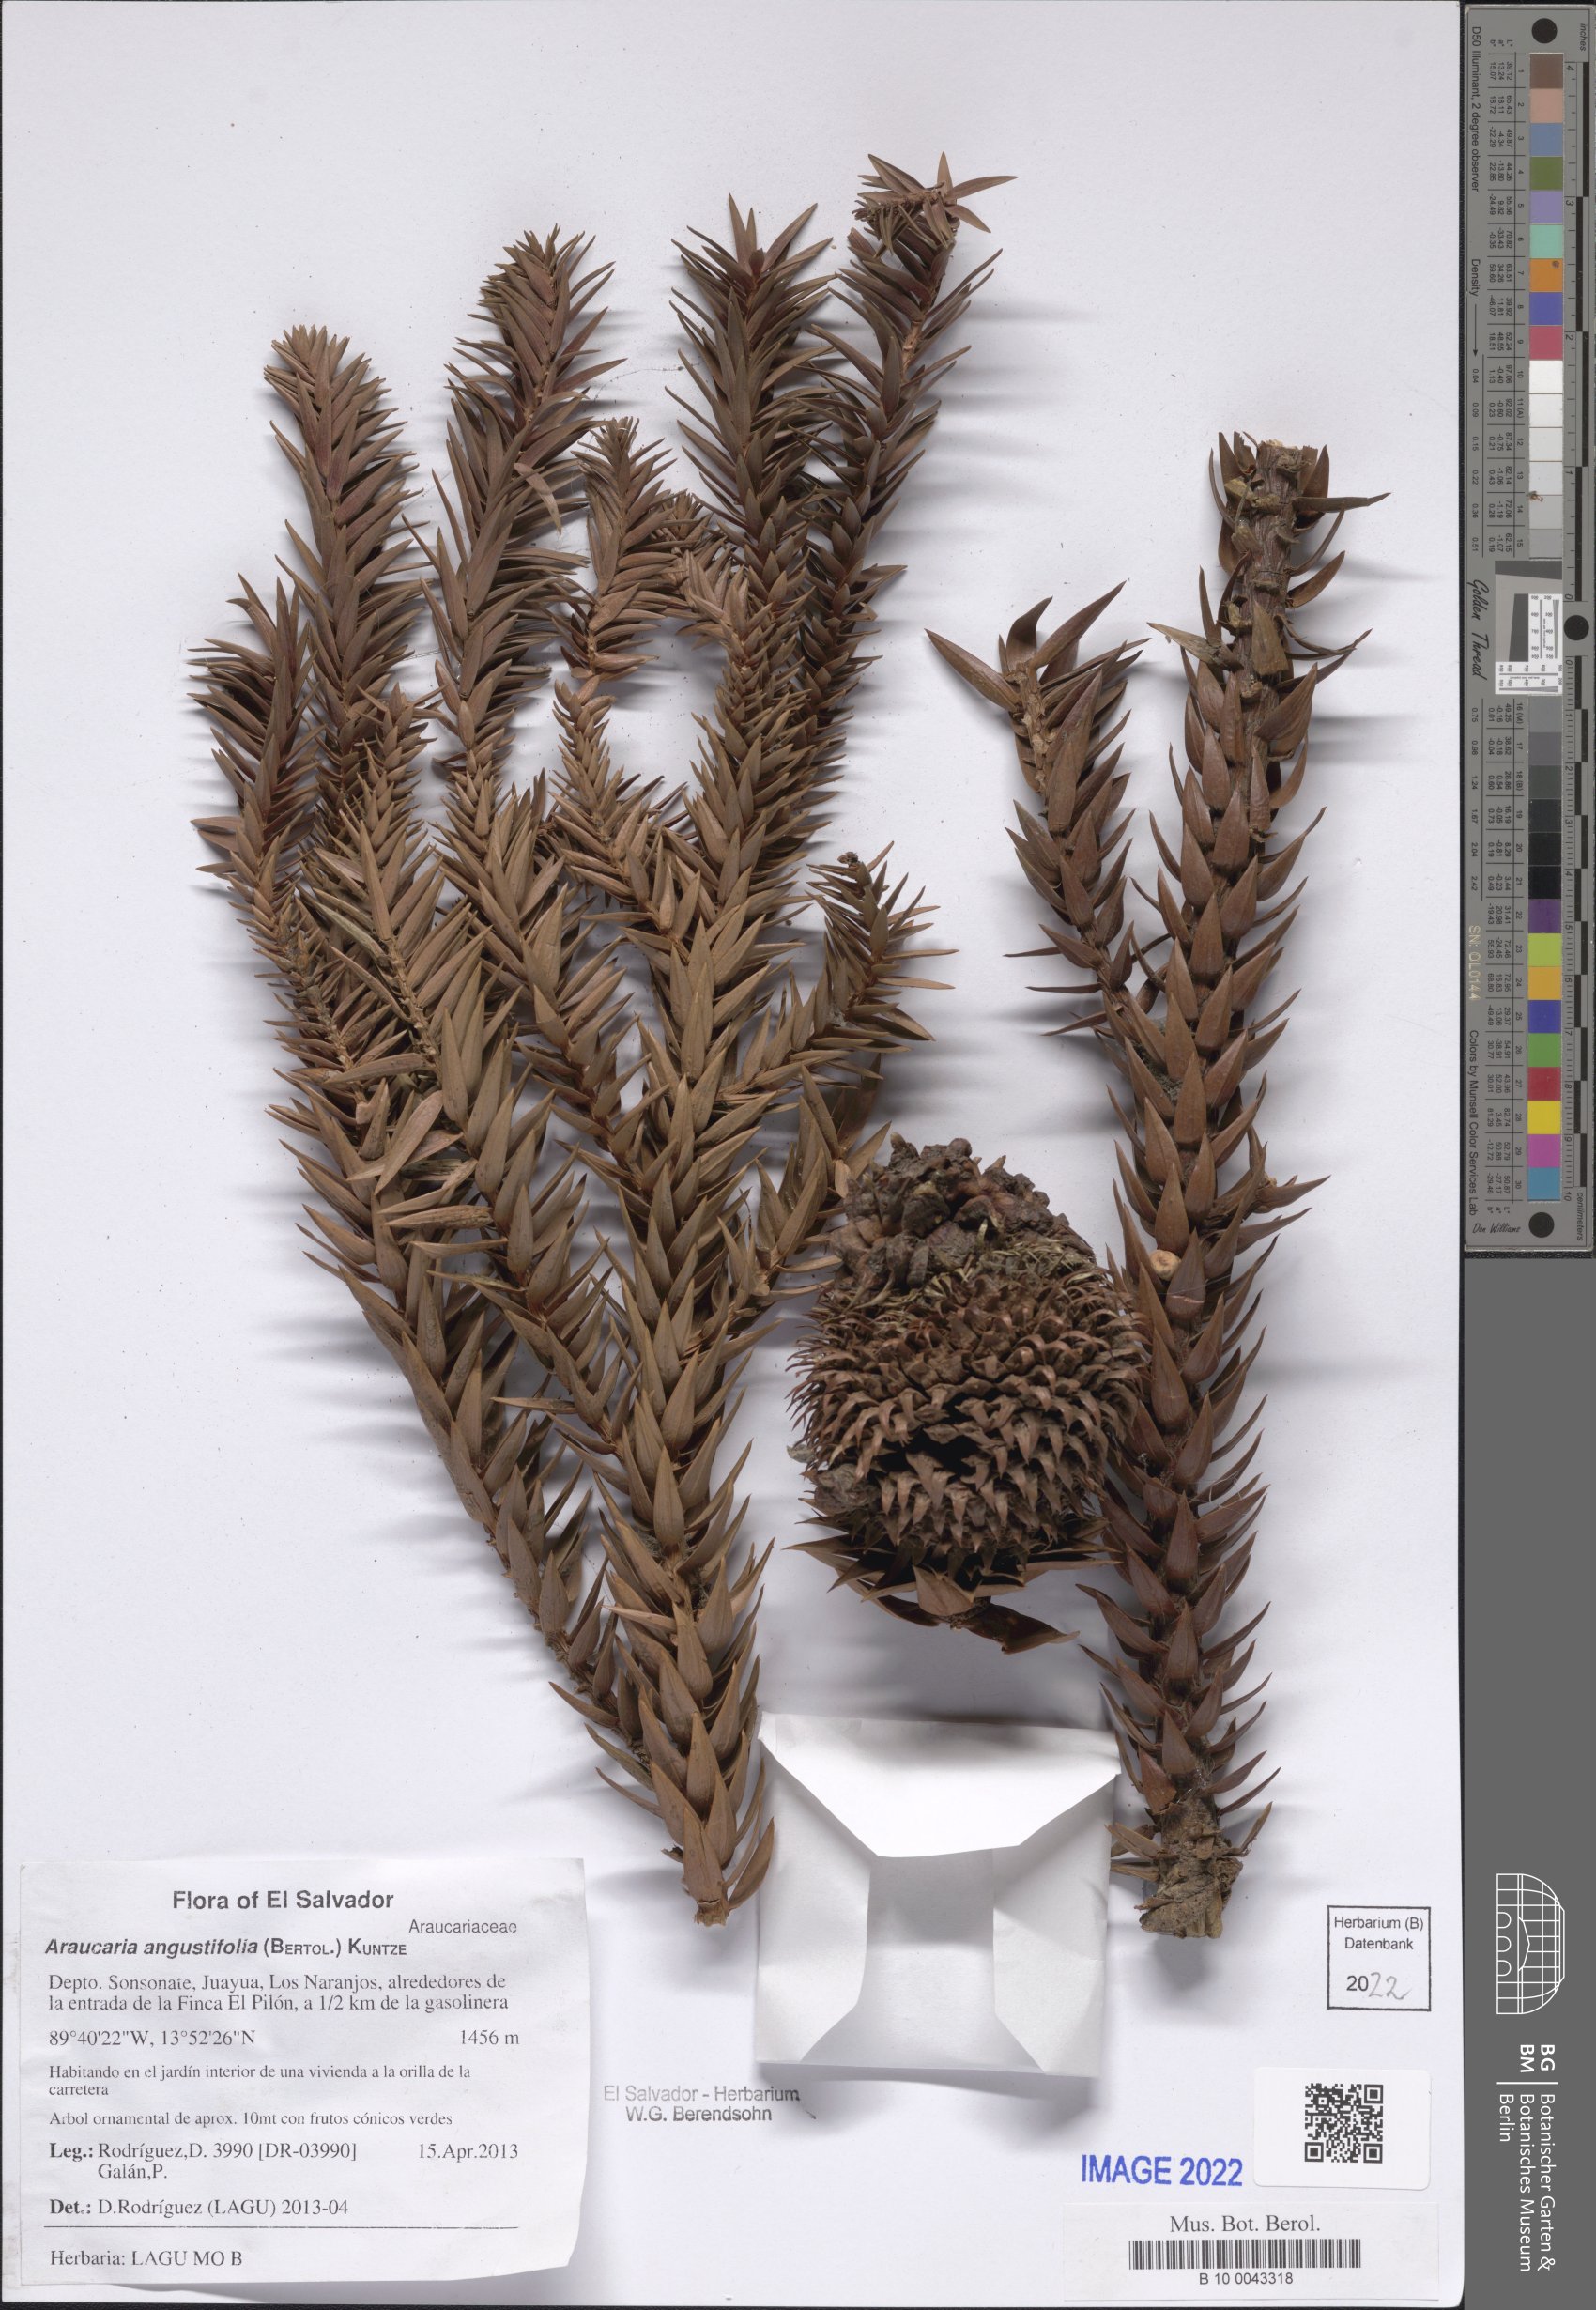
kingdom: Plantae
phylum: Tracheophyta
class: Pinopsida
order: Pinales
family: Araucariaceae
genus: Araucaria
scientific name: Araucaria angustifolia
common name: Candelabra tree
